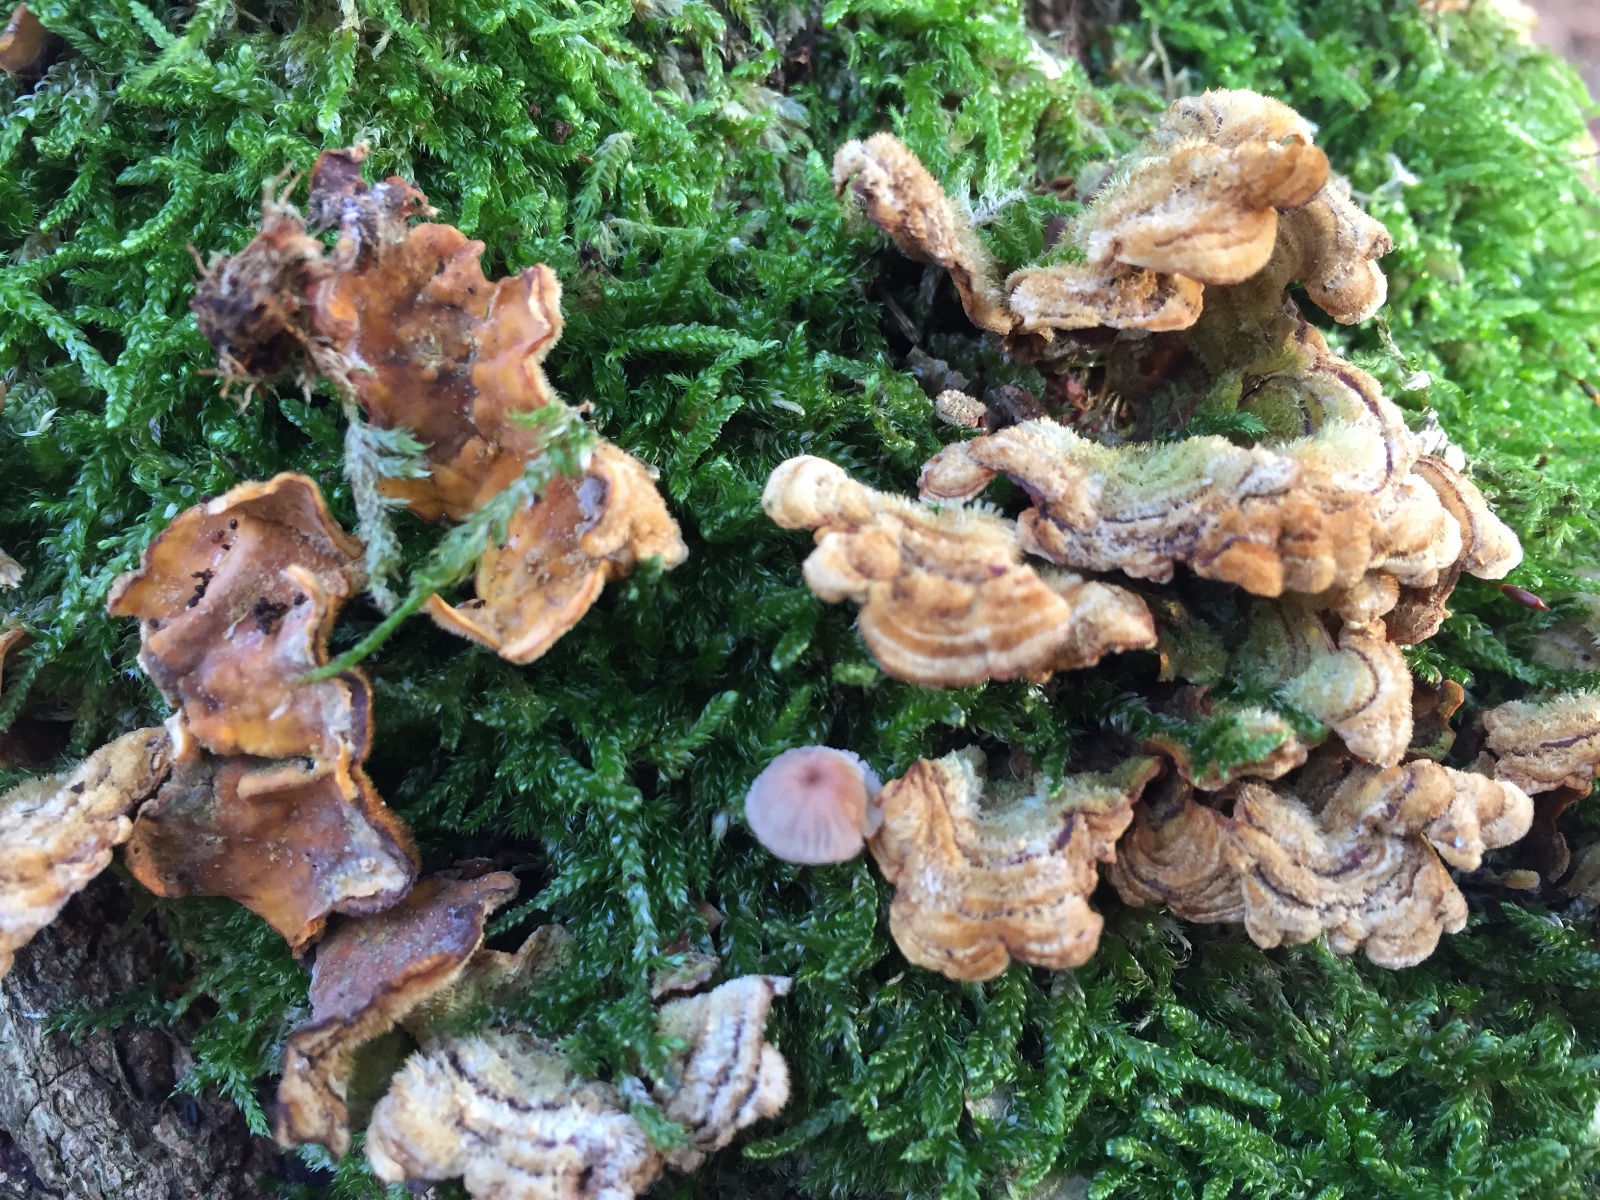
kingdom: Fungi
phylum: Basidiomycota
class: Agaricomycetes
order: Russulales
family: Stereaceae
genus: Stereum
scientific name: Stereum hirsutum
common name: håret lædersvamp
